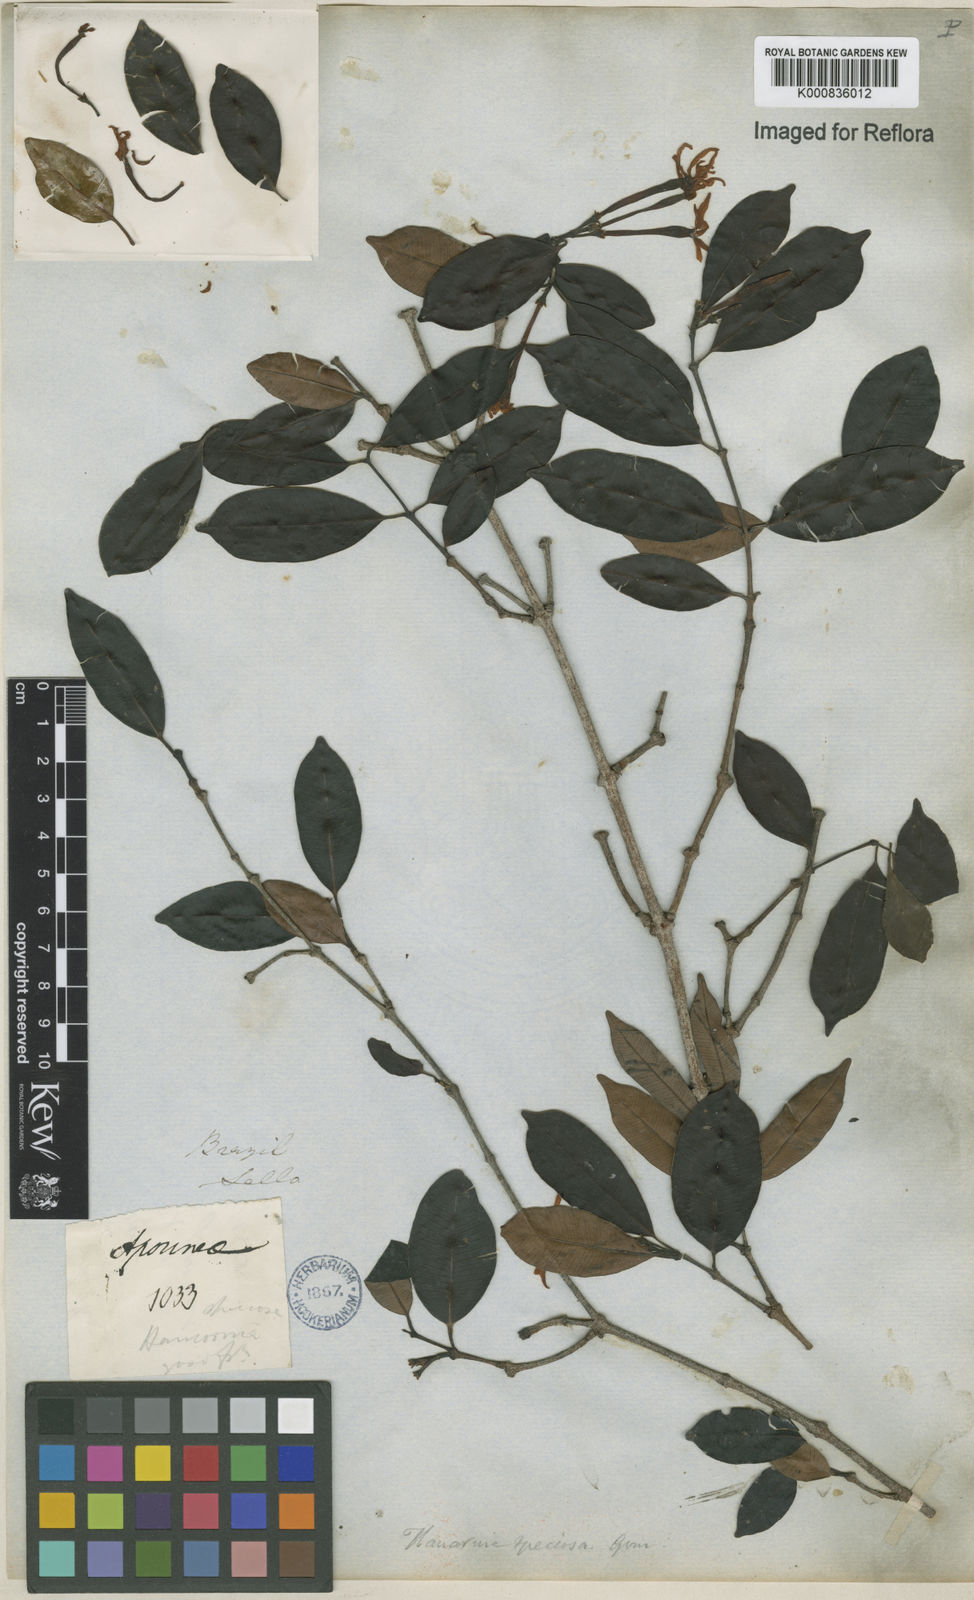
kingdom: Plantae
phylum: Tracheophyta
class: Magnoliopsida
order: Gentianales
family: Apocynaceae
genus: Hancornia
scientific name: Hancornia speciosa
